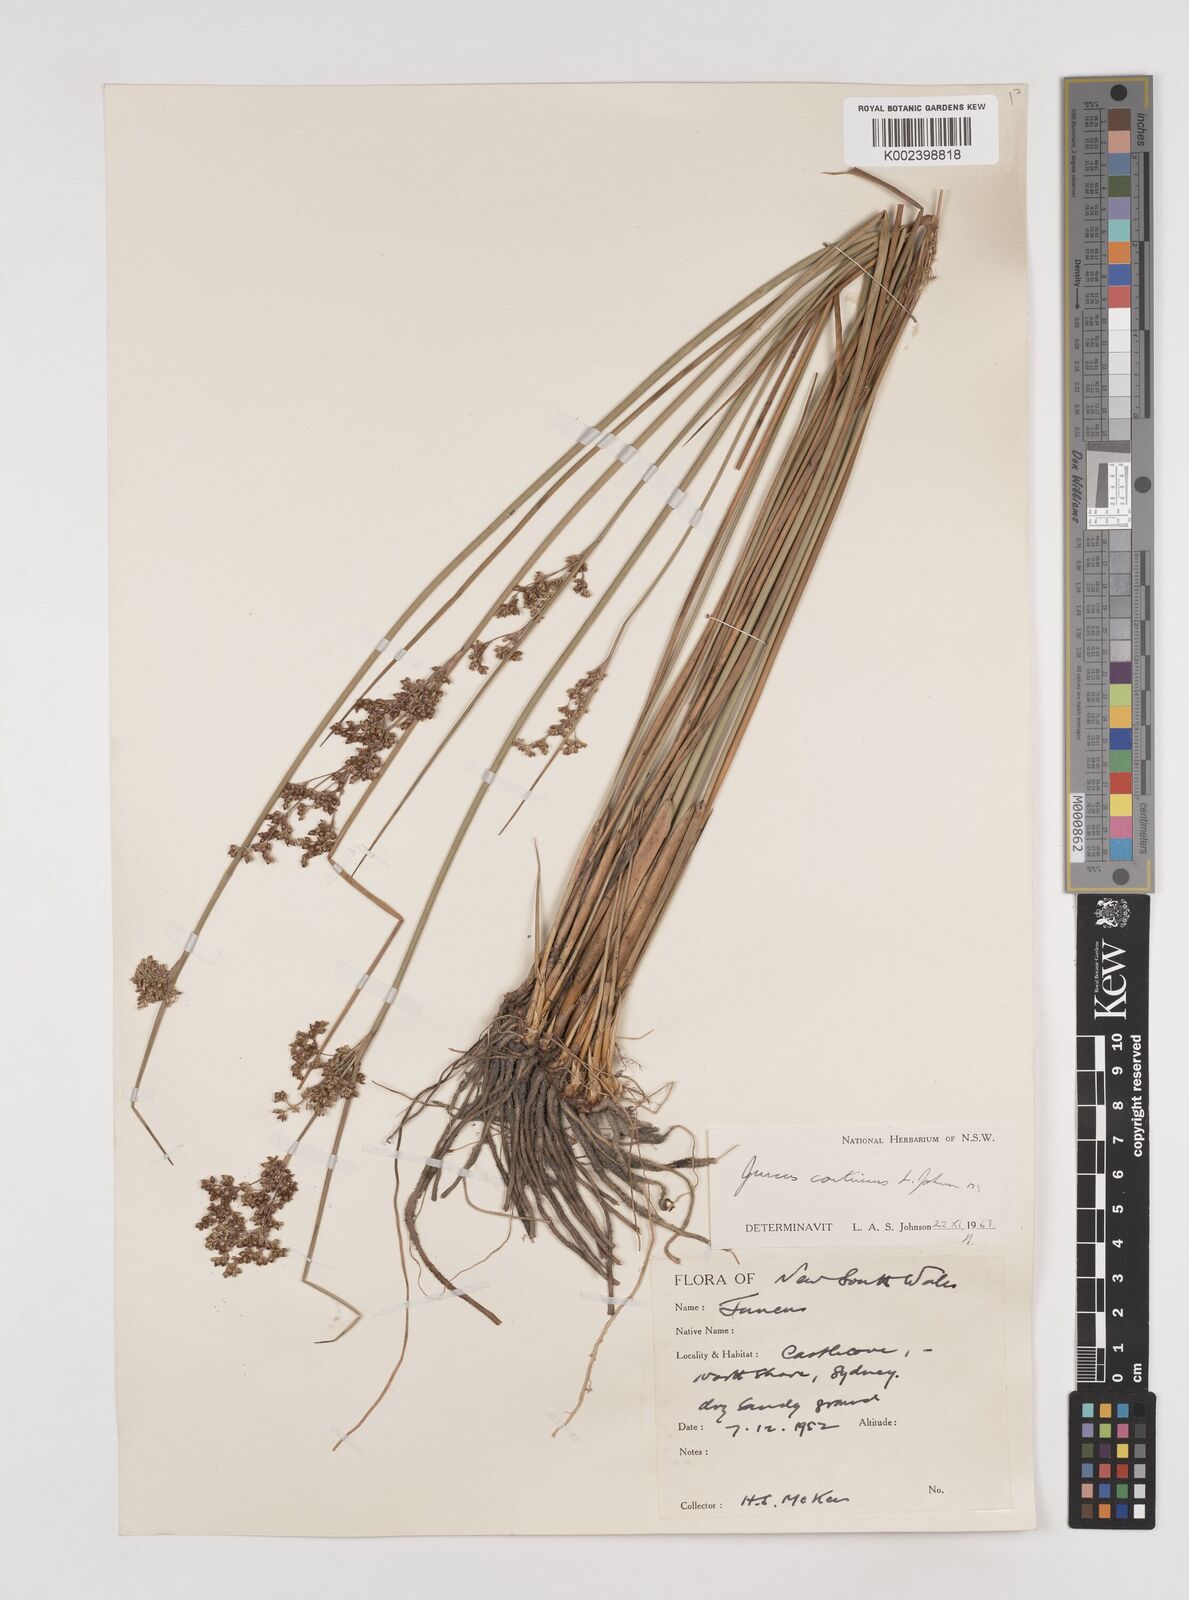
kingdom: Plantae
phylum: Tracheophyta
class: Liliopsida
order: Poales
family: Juncaceae
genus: Juncus
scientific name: Juncus
